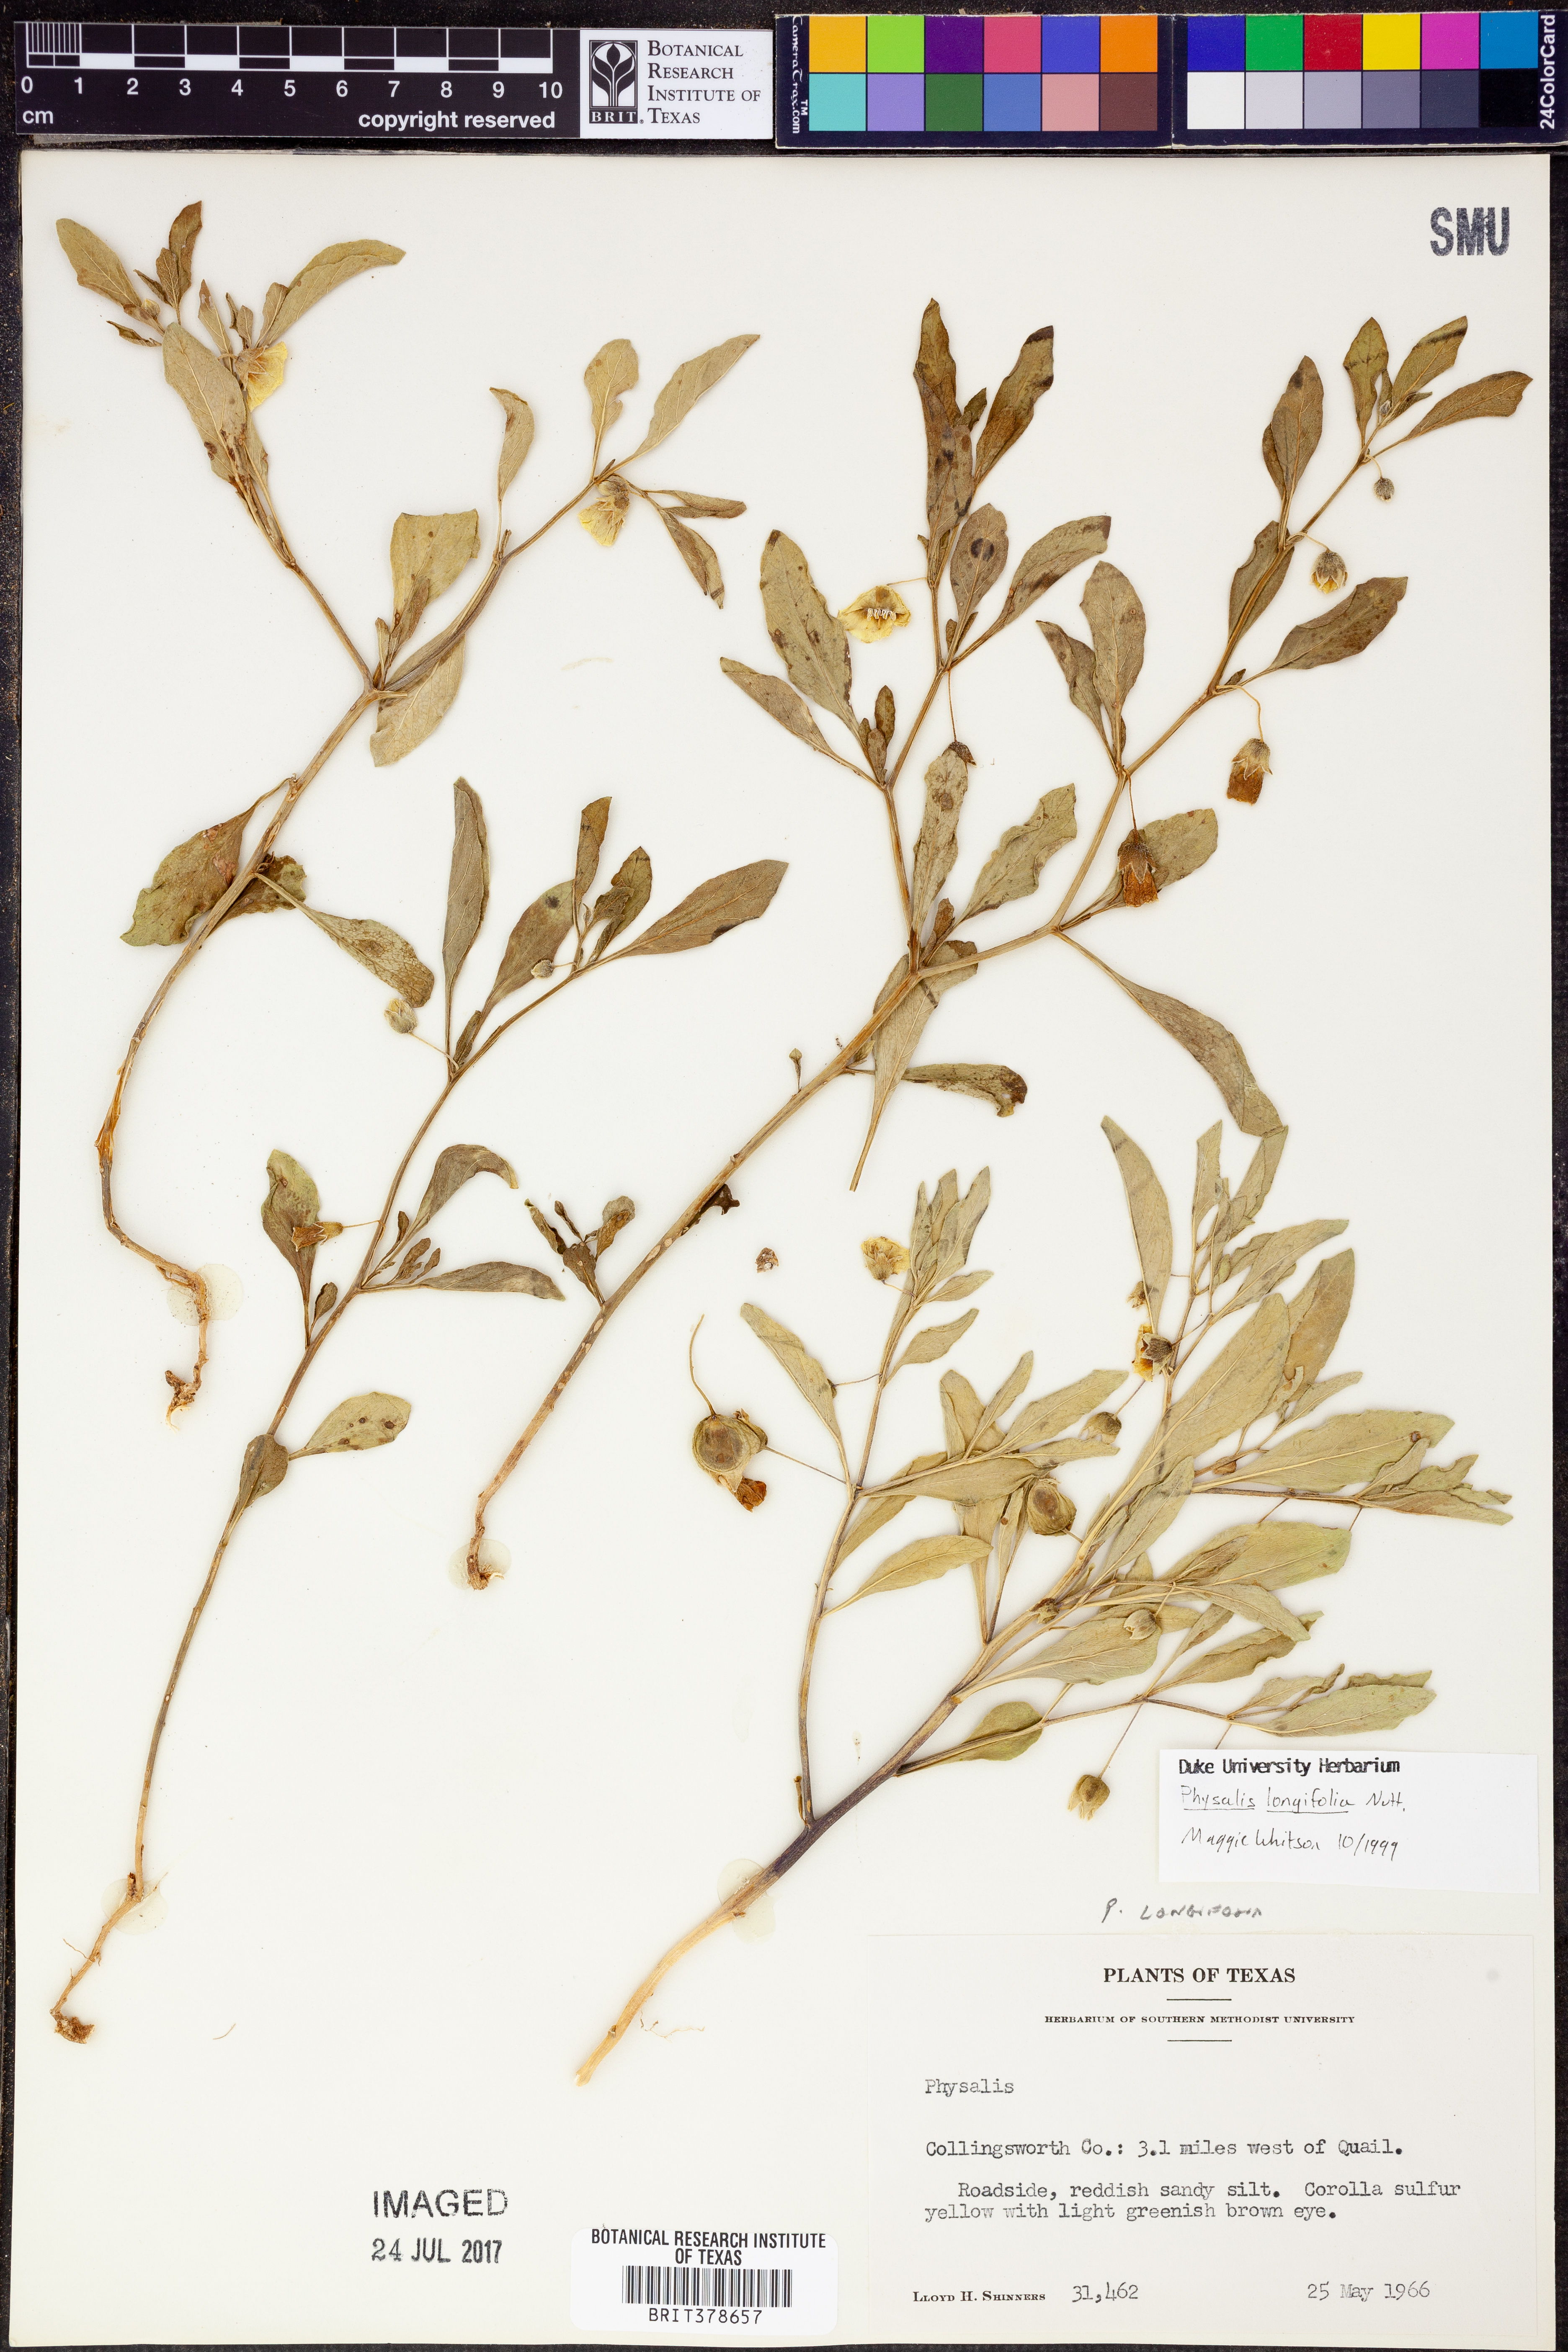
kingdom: Plantae
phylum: Tracheophyta
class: Magnoliopsida
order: Solanales
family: Solanaceae
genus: Physalis
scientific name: Physalis longifolia
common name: Common ground-cherry
